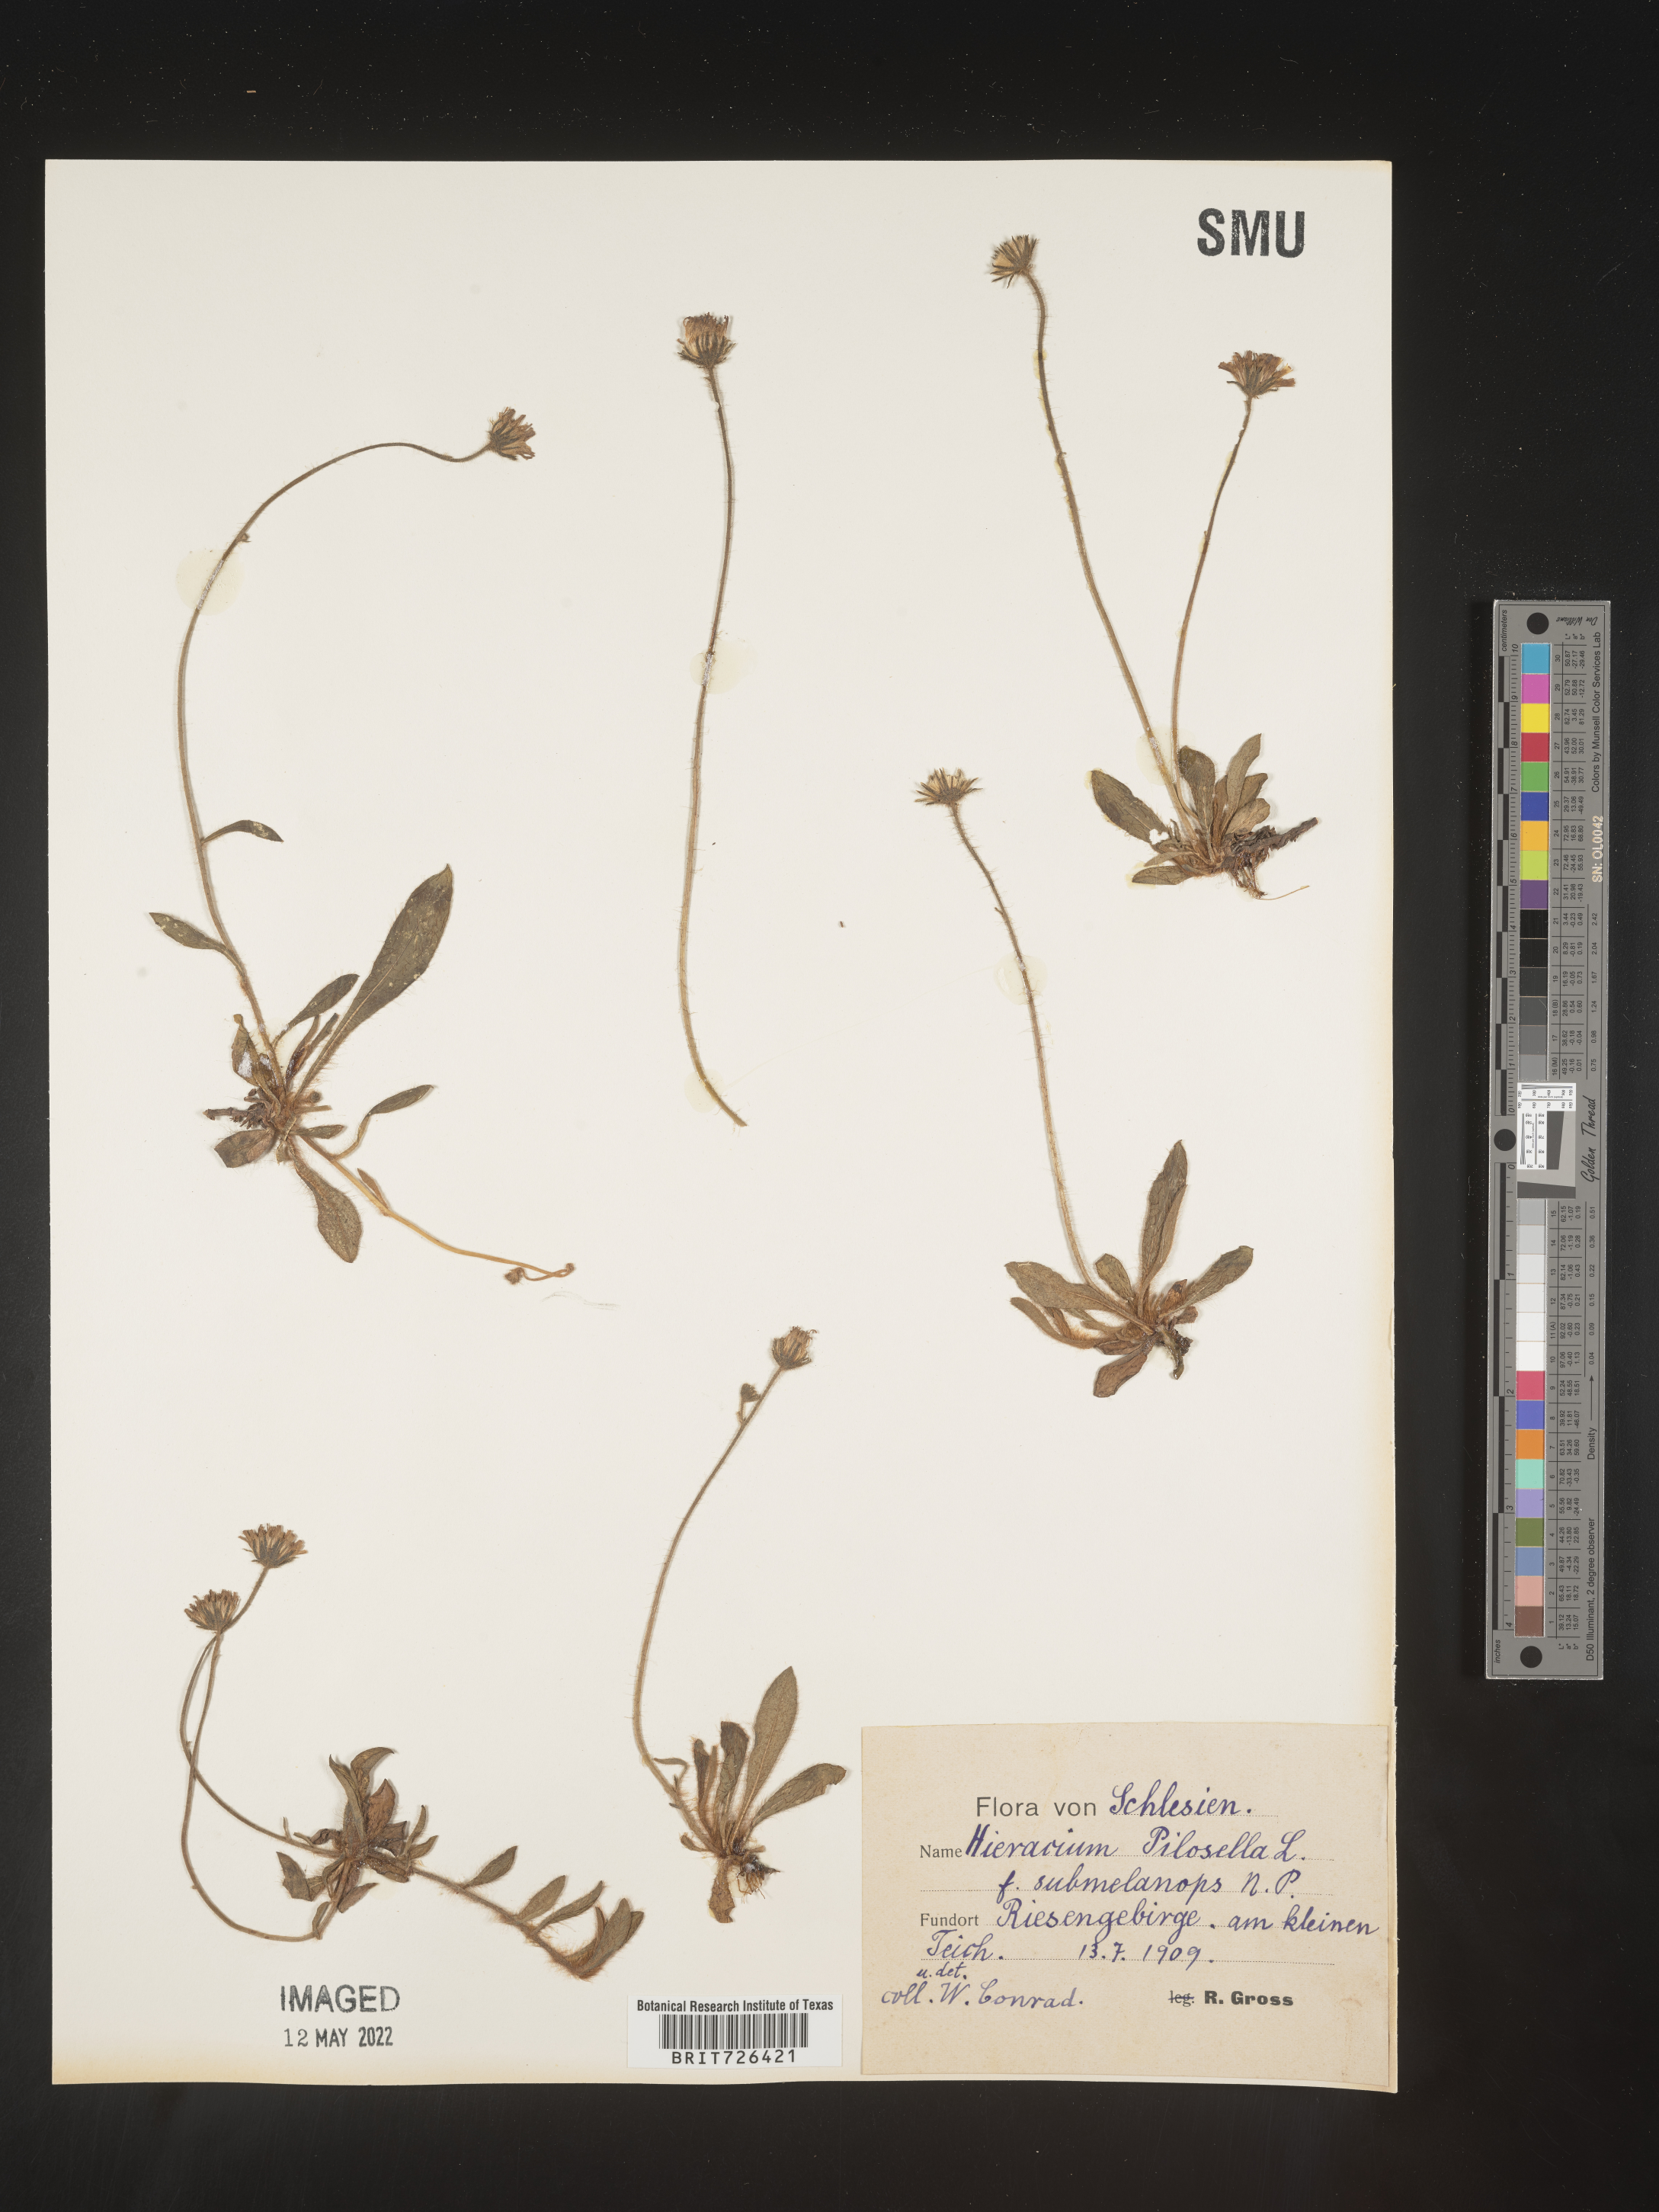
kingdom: Plantae
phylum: Tracheophyta
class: Magnoliopsida
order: Asterales
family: Asteraceae
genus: Hieracium
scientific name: Hieracium
